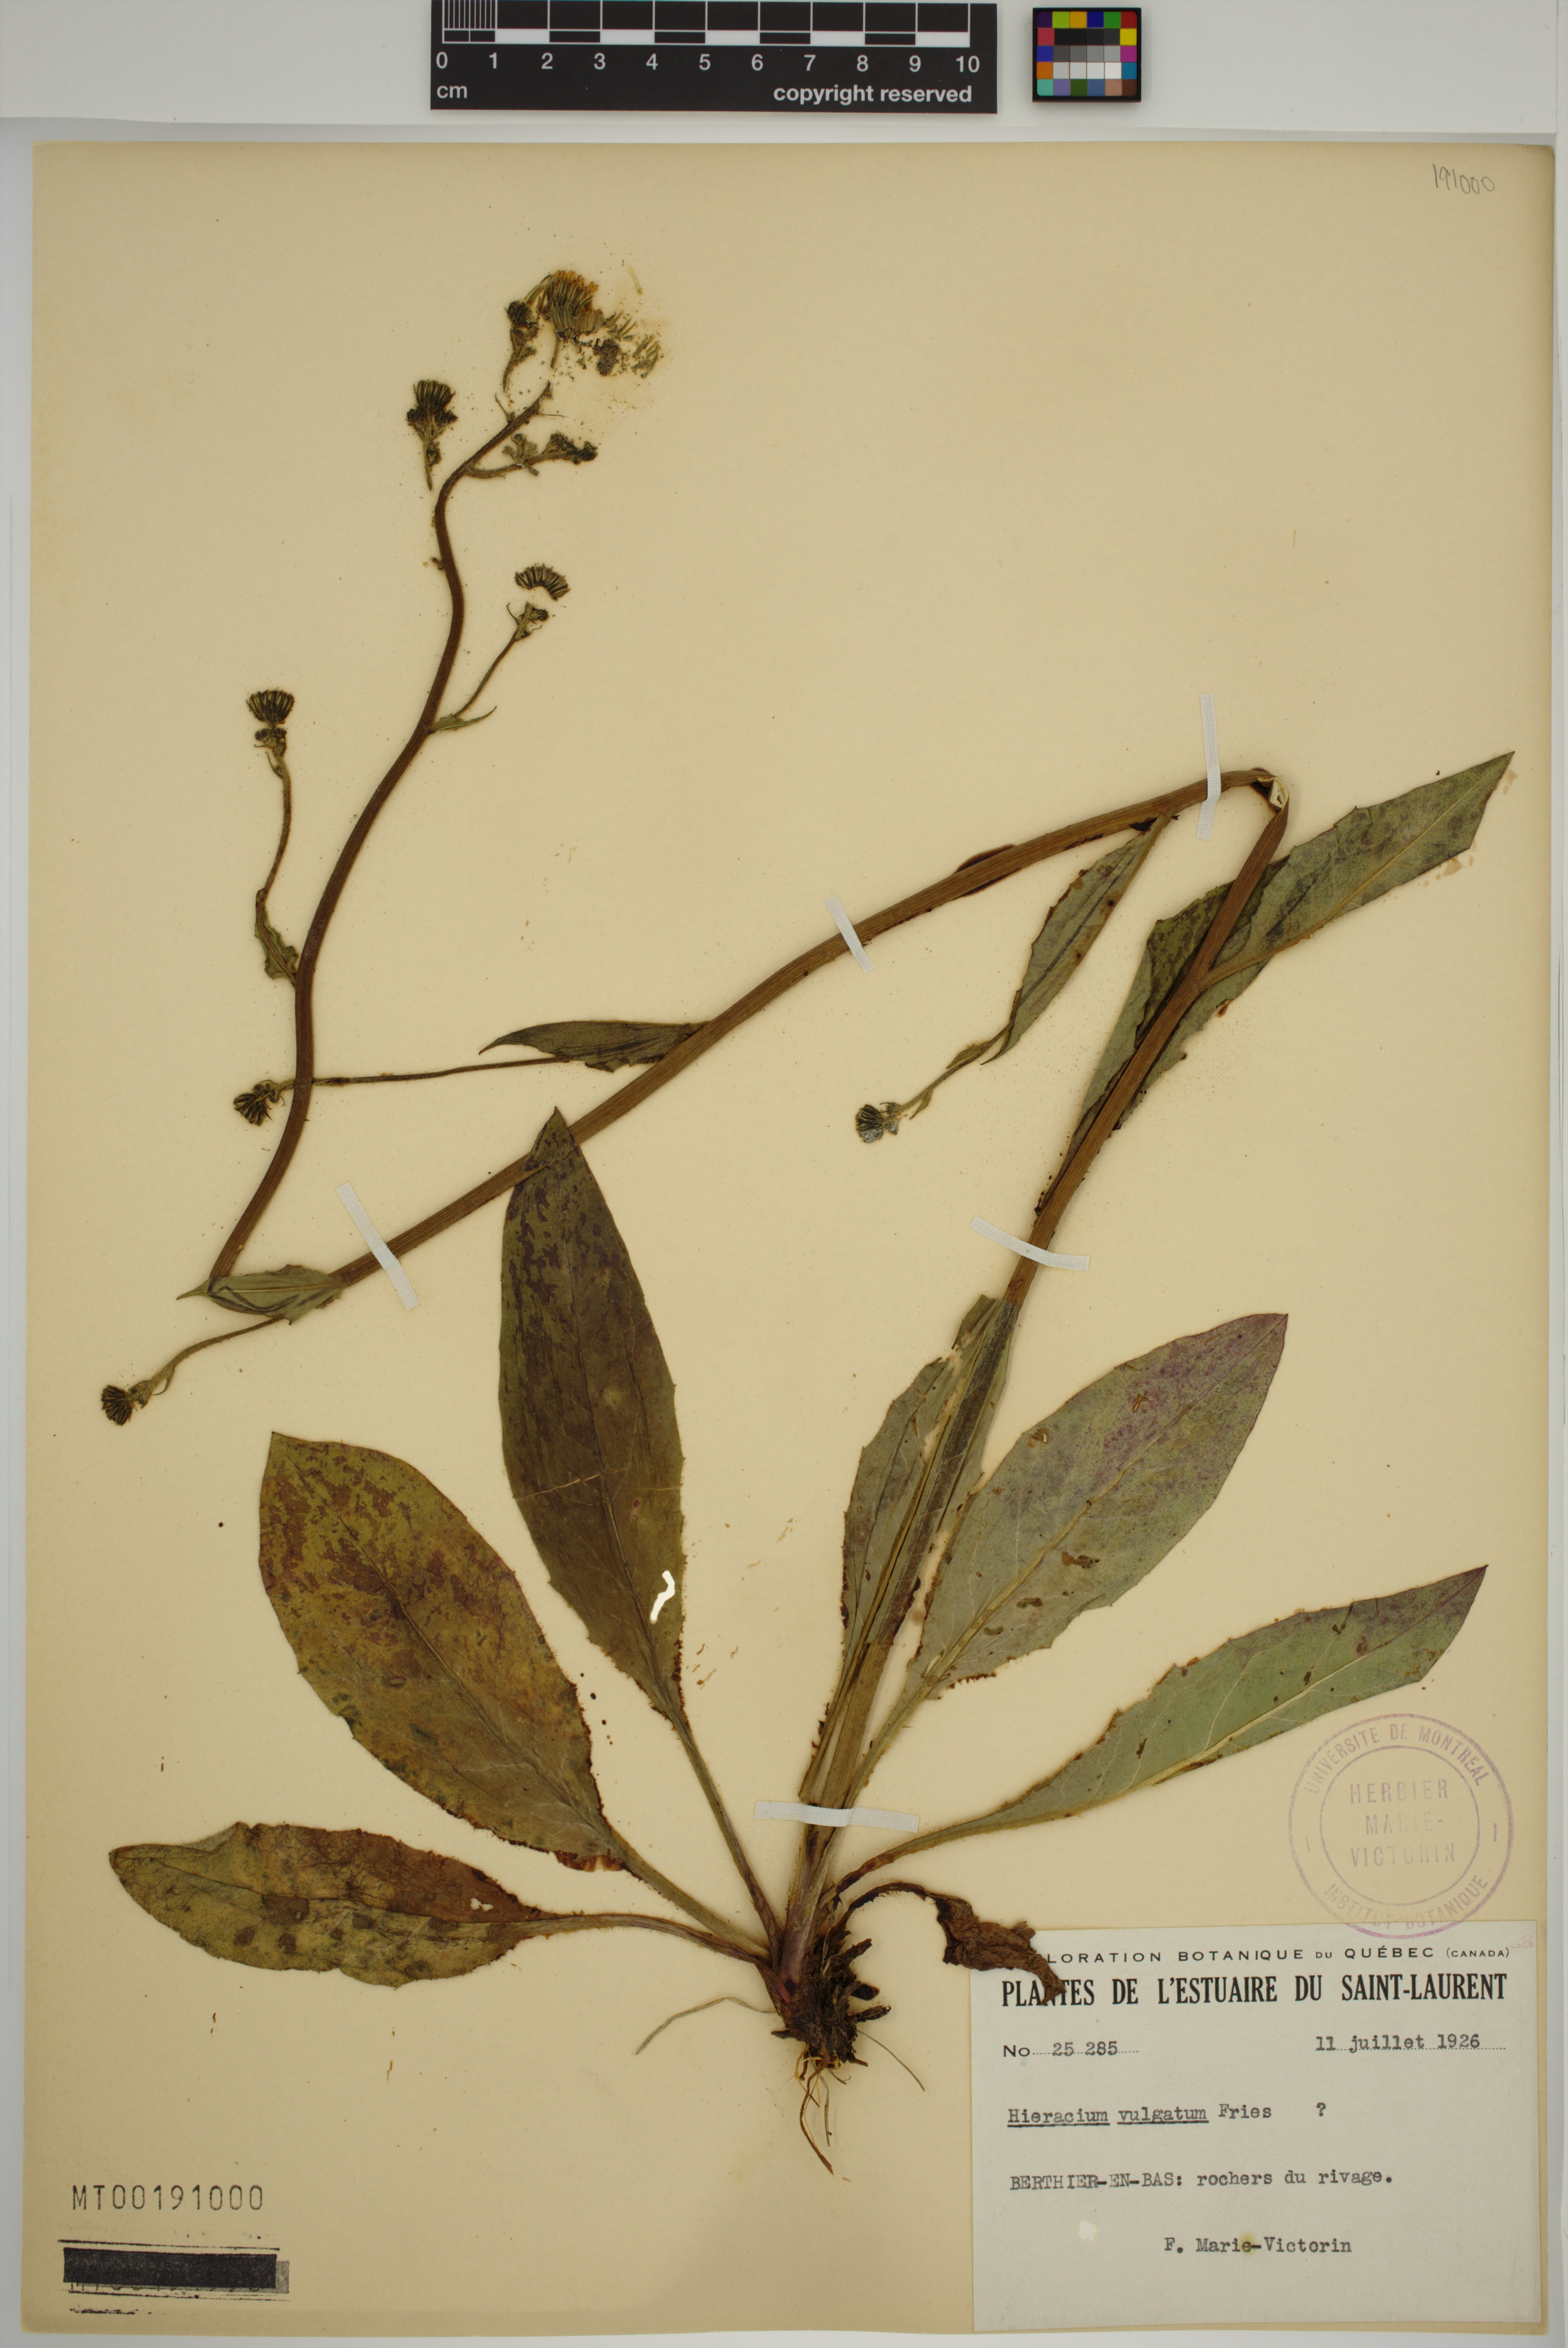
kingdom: Plantae
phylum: Tracheophyta
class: Magnoliopsida
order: Asterales
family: Asteraceae
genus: Hieracium
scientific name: Hieracium lachenalii
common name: Common hawkweed
